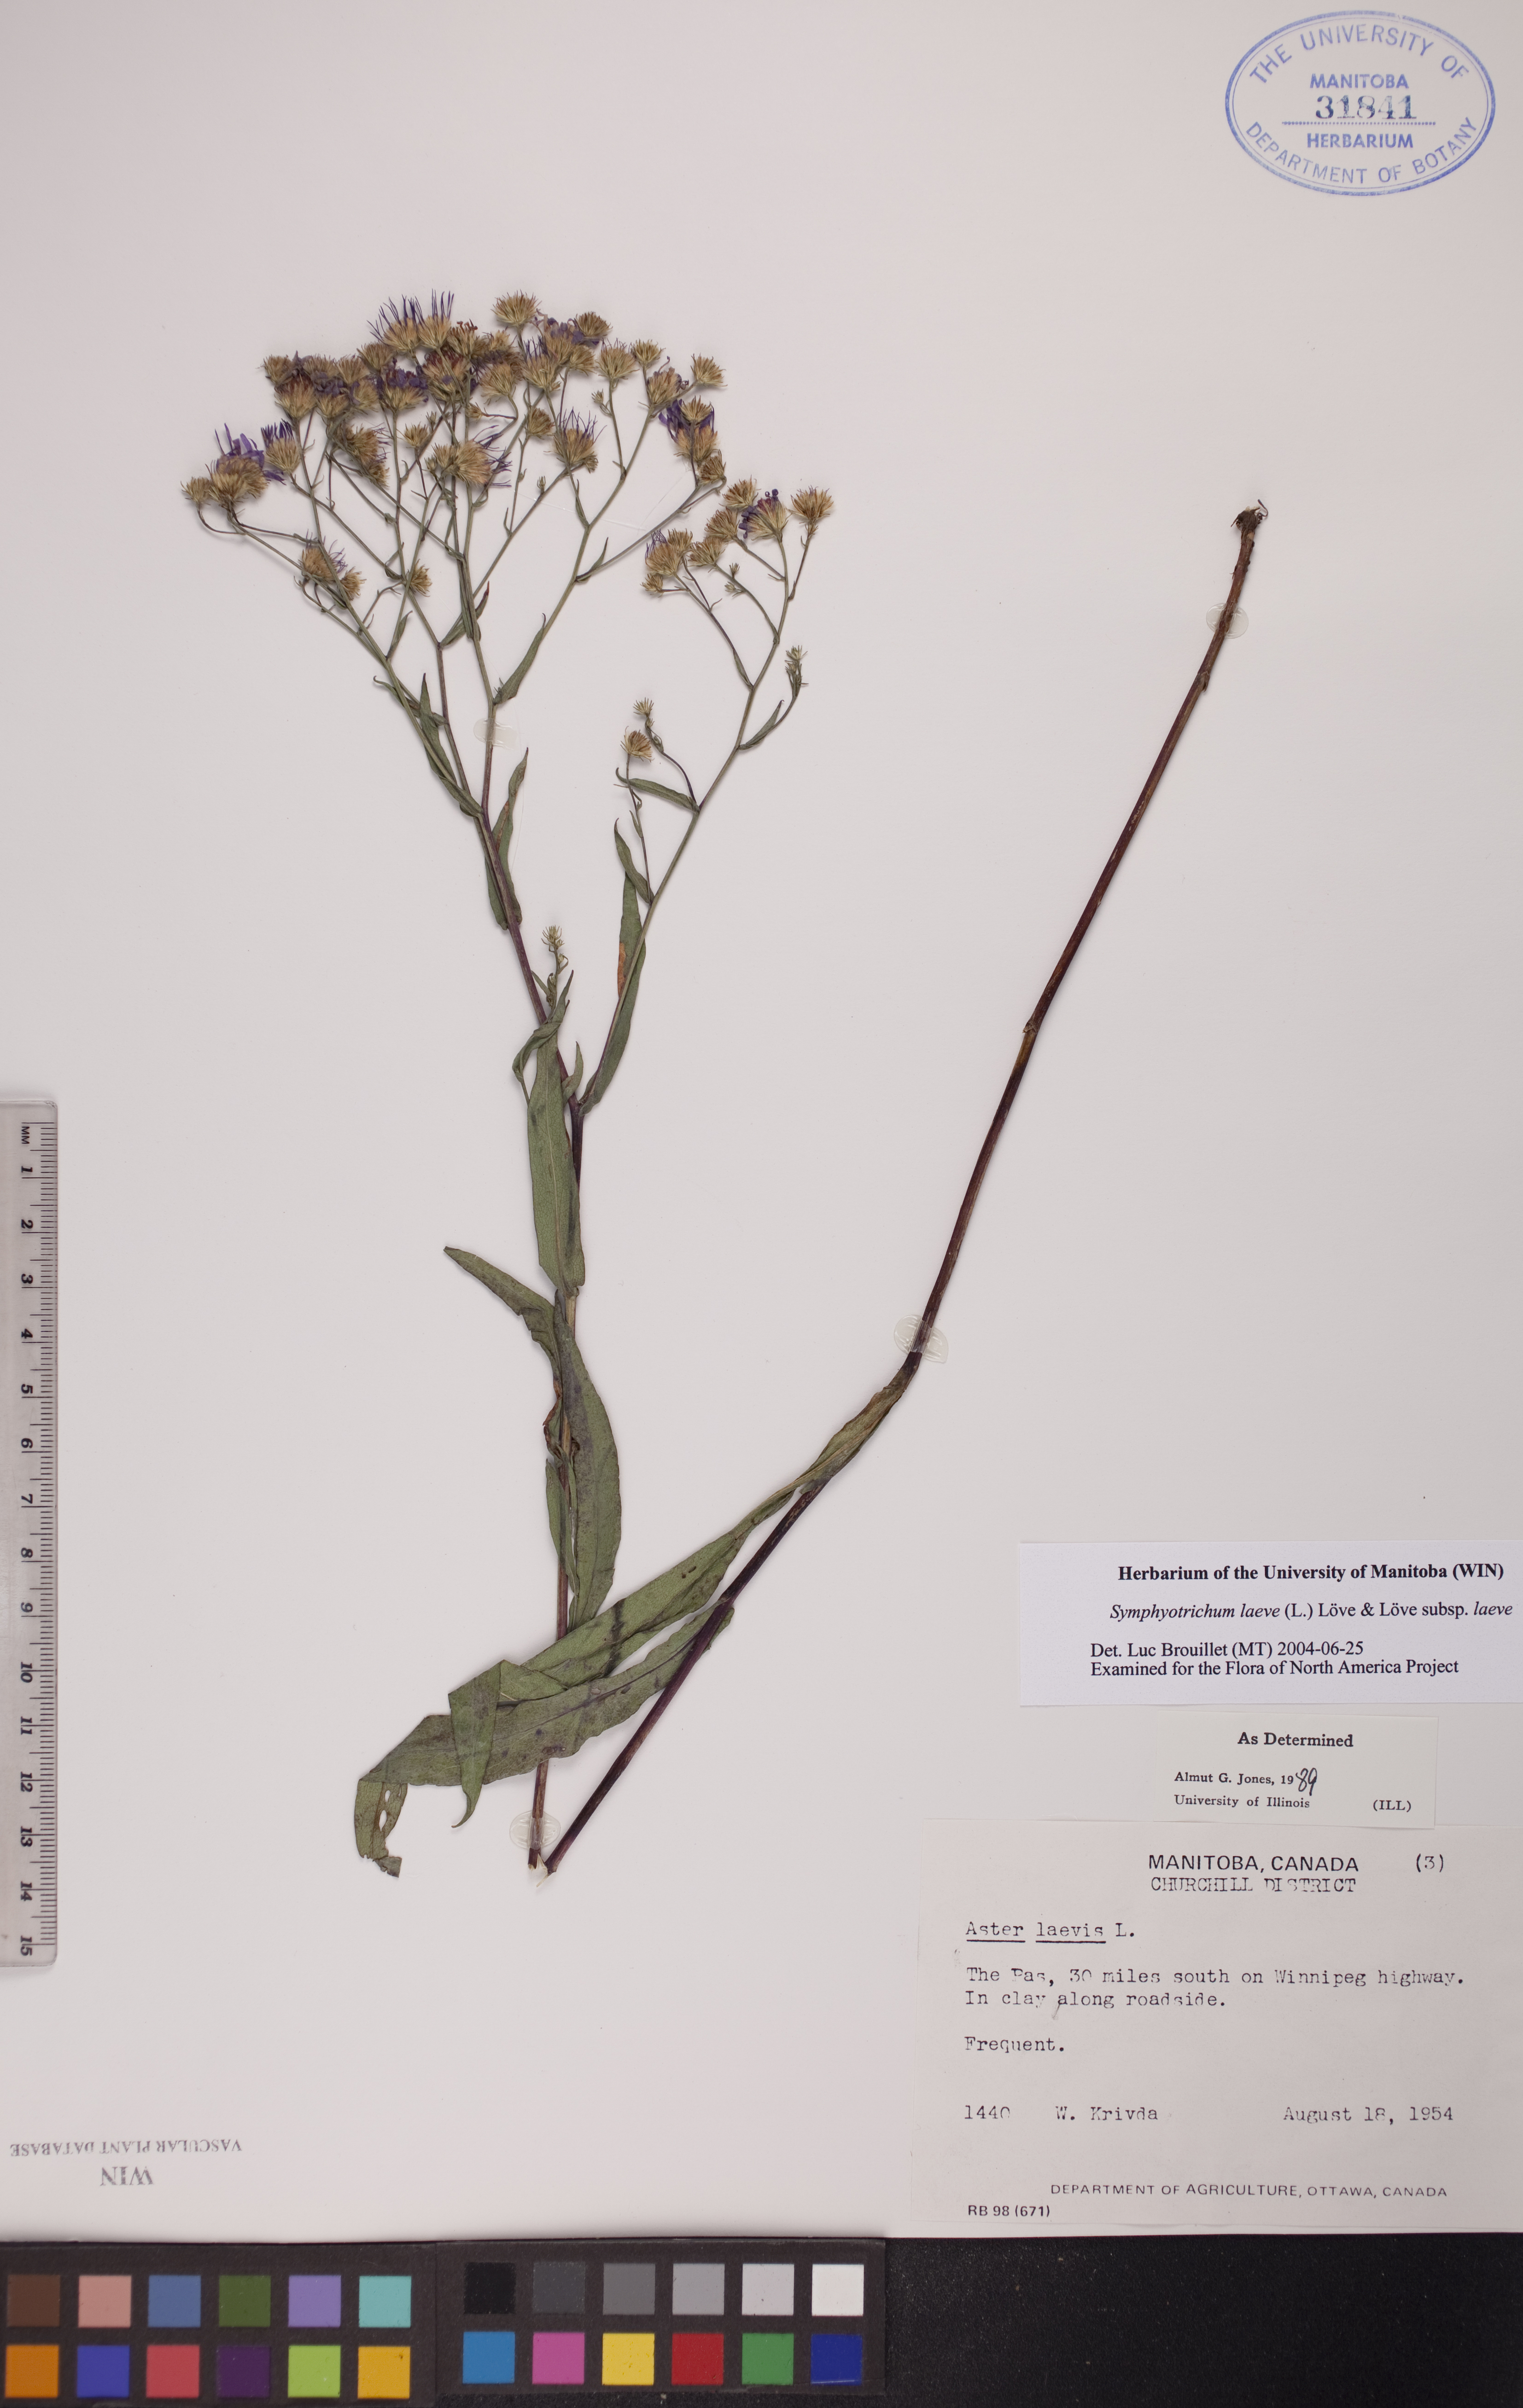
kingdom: Plantae
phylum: Tracheophyta
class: Magnoliopsida
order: Asterales
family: Asteraceae
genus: Symphyotrichum
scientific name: Symphyotrichum laeve
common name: Glaucous aster
